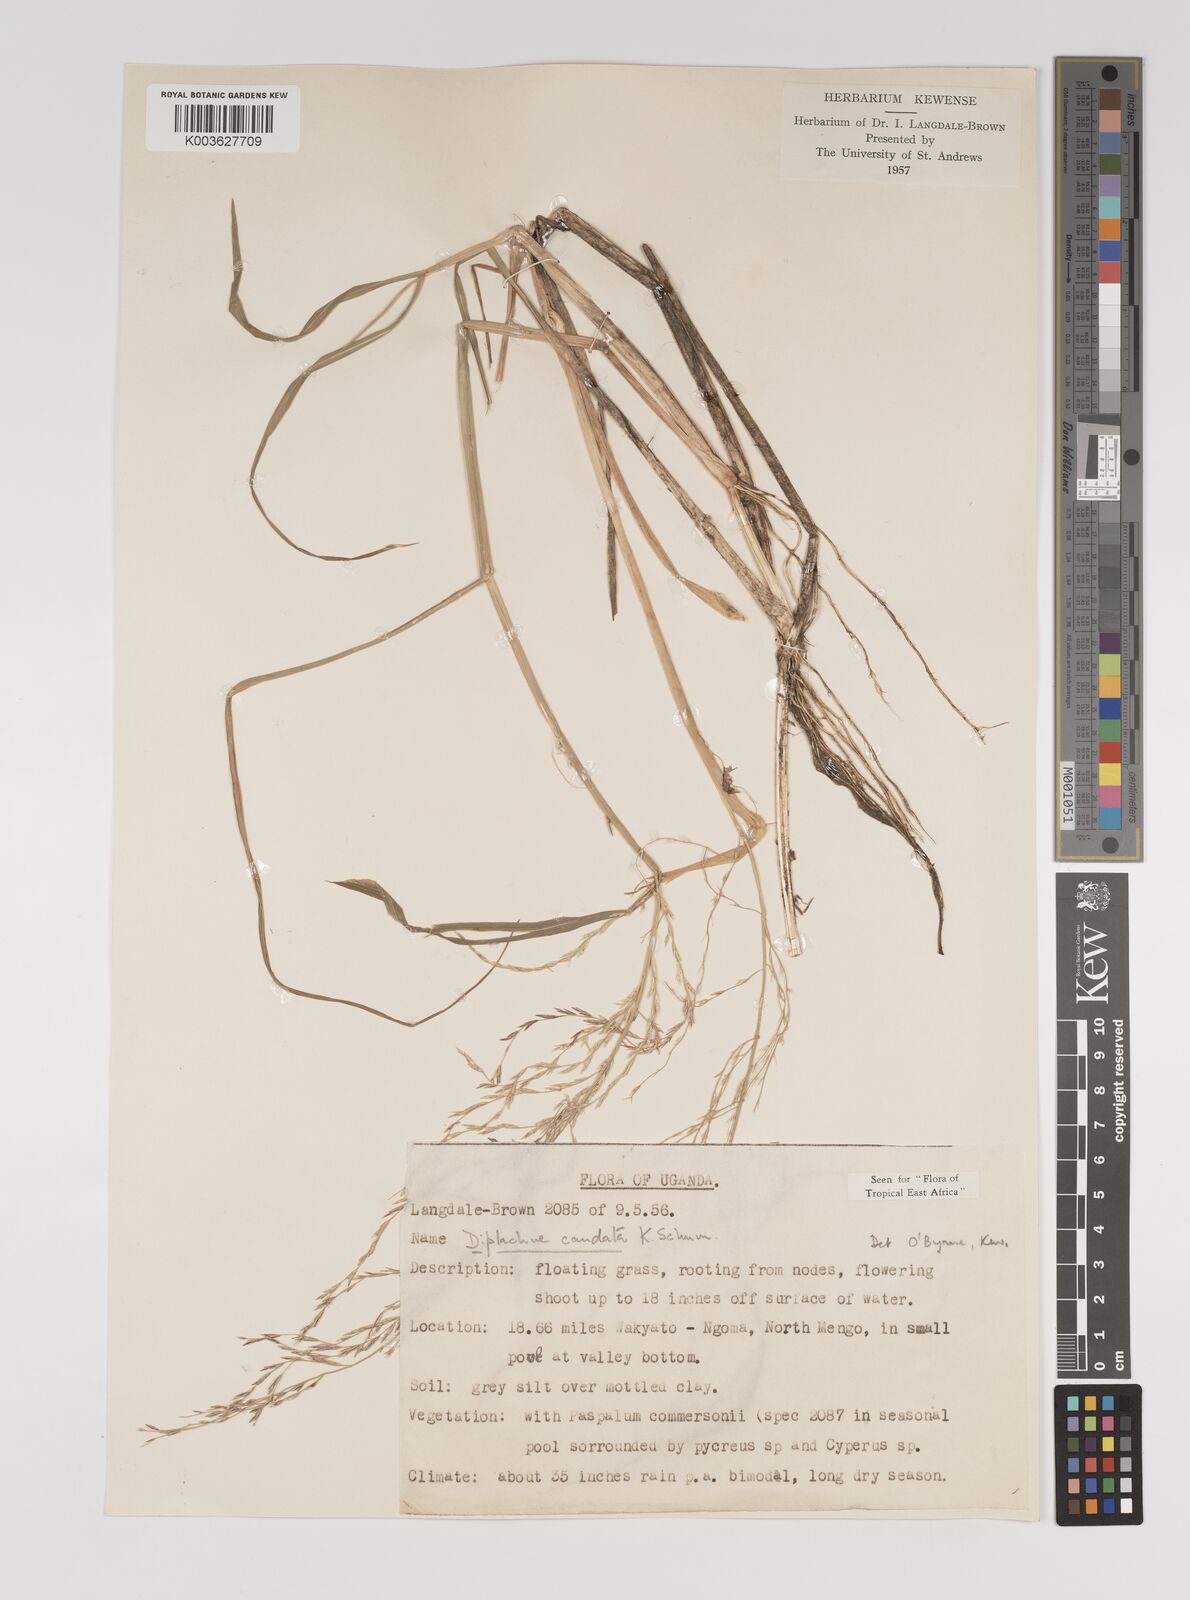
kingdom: Plantae
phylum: Tracheophyta
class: Liliopsida
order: Poales
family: Poaceae
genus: Leptochloa
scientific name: Leptochloa caudata
